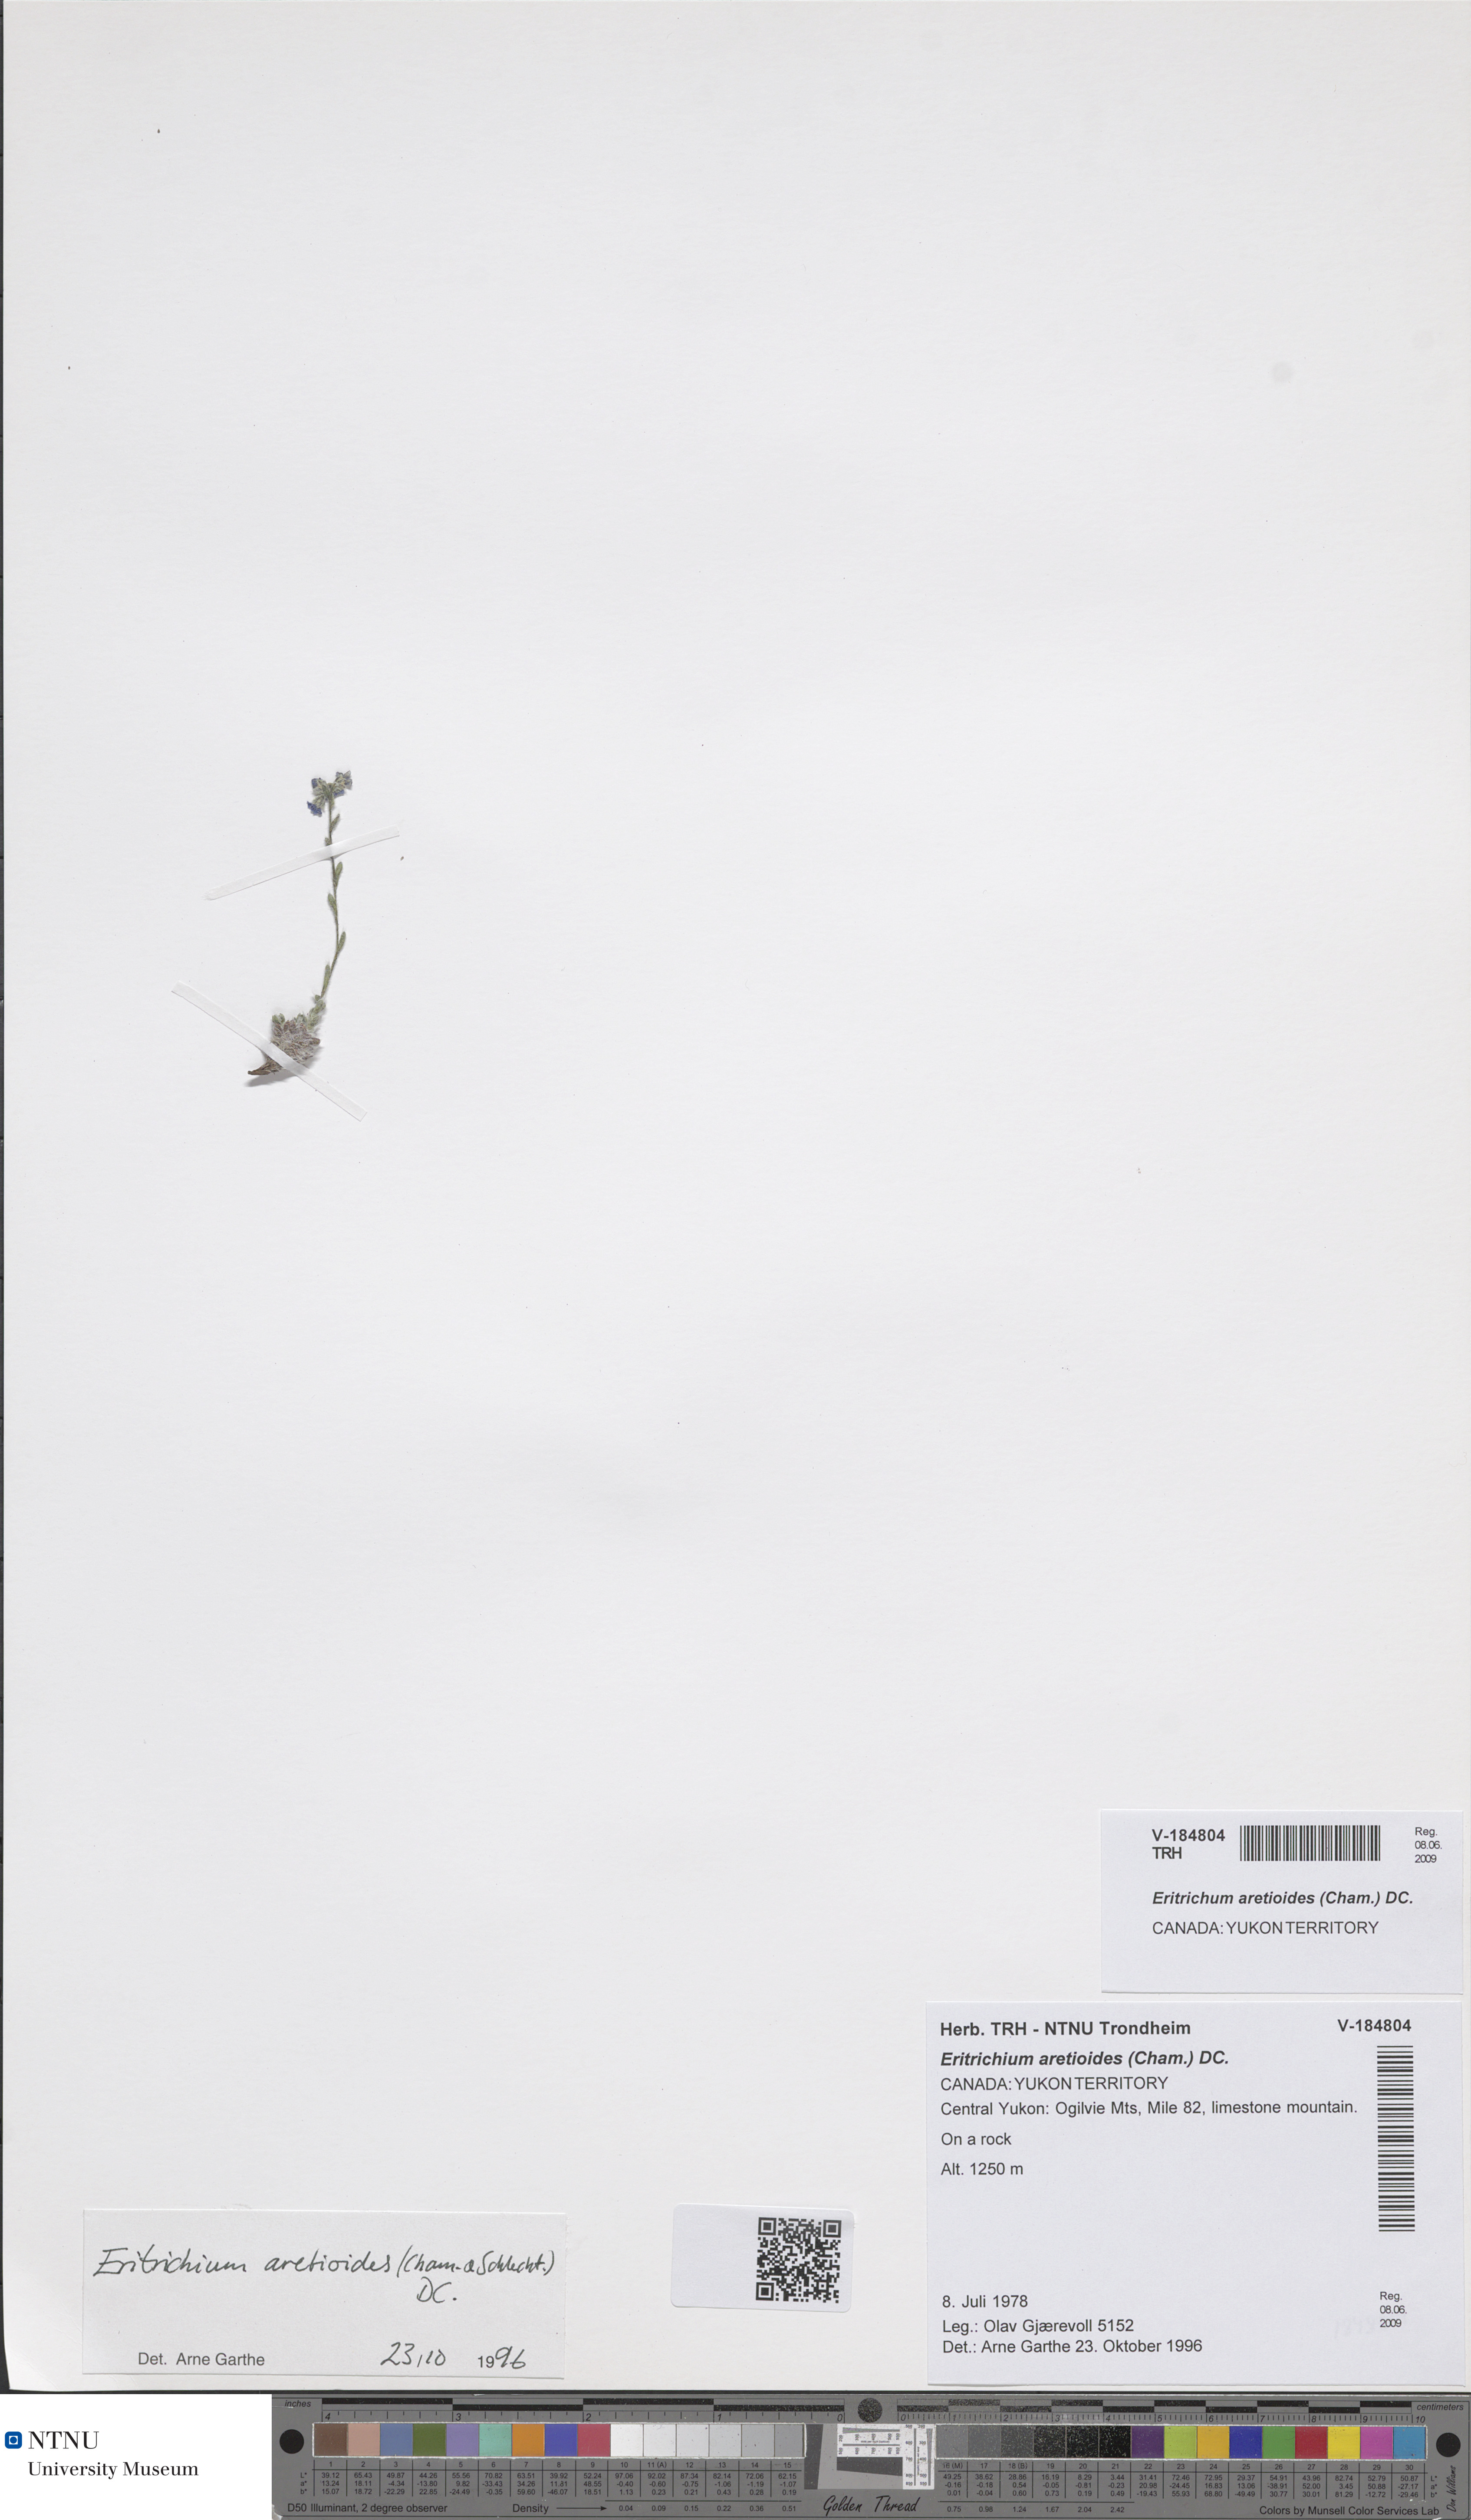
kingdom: Plantae
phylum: Tracheophyta
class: Magnoliopsida
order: Boraginales
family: Boraginaceae
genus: Eritrichium
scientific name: Eritrichium aretioides
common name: Arctic-alpine forget-me-not
